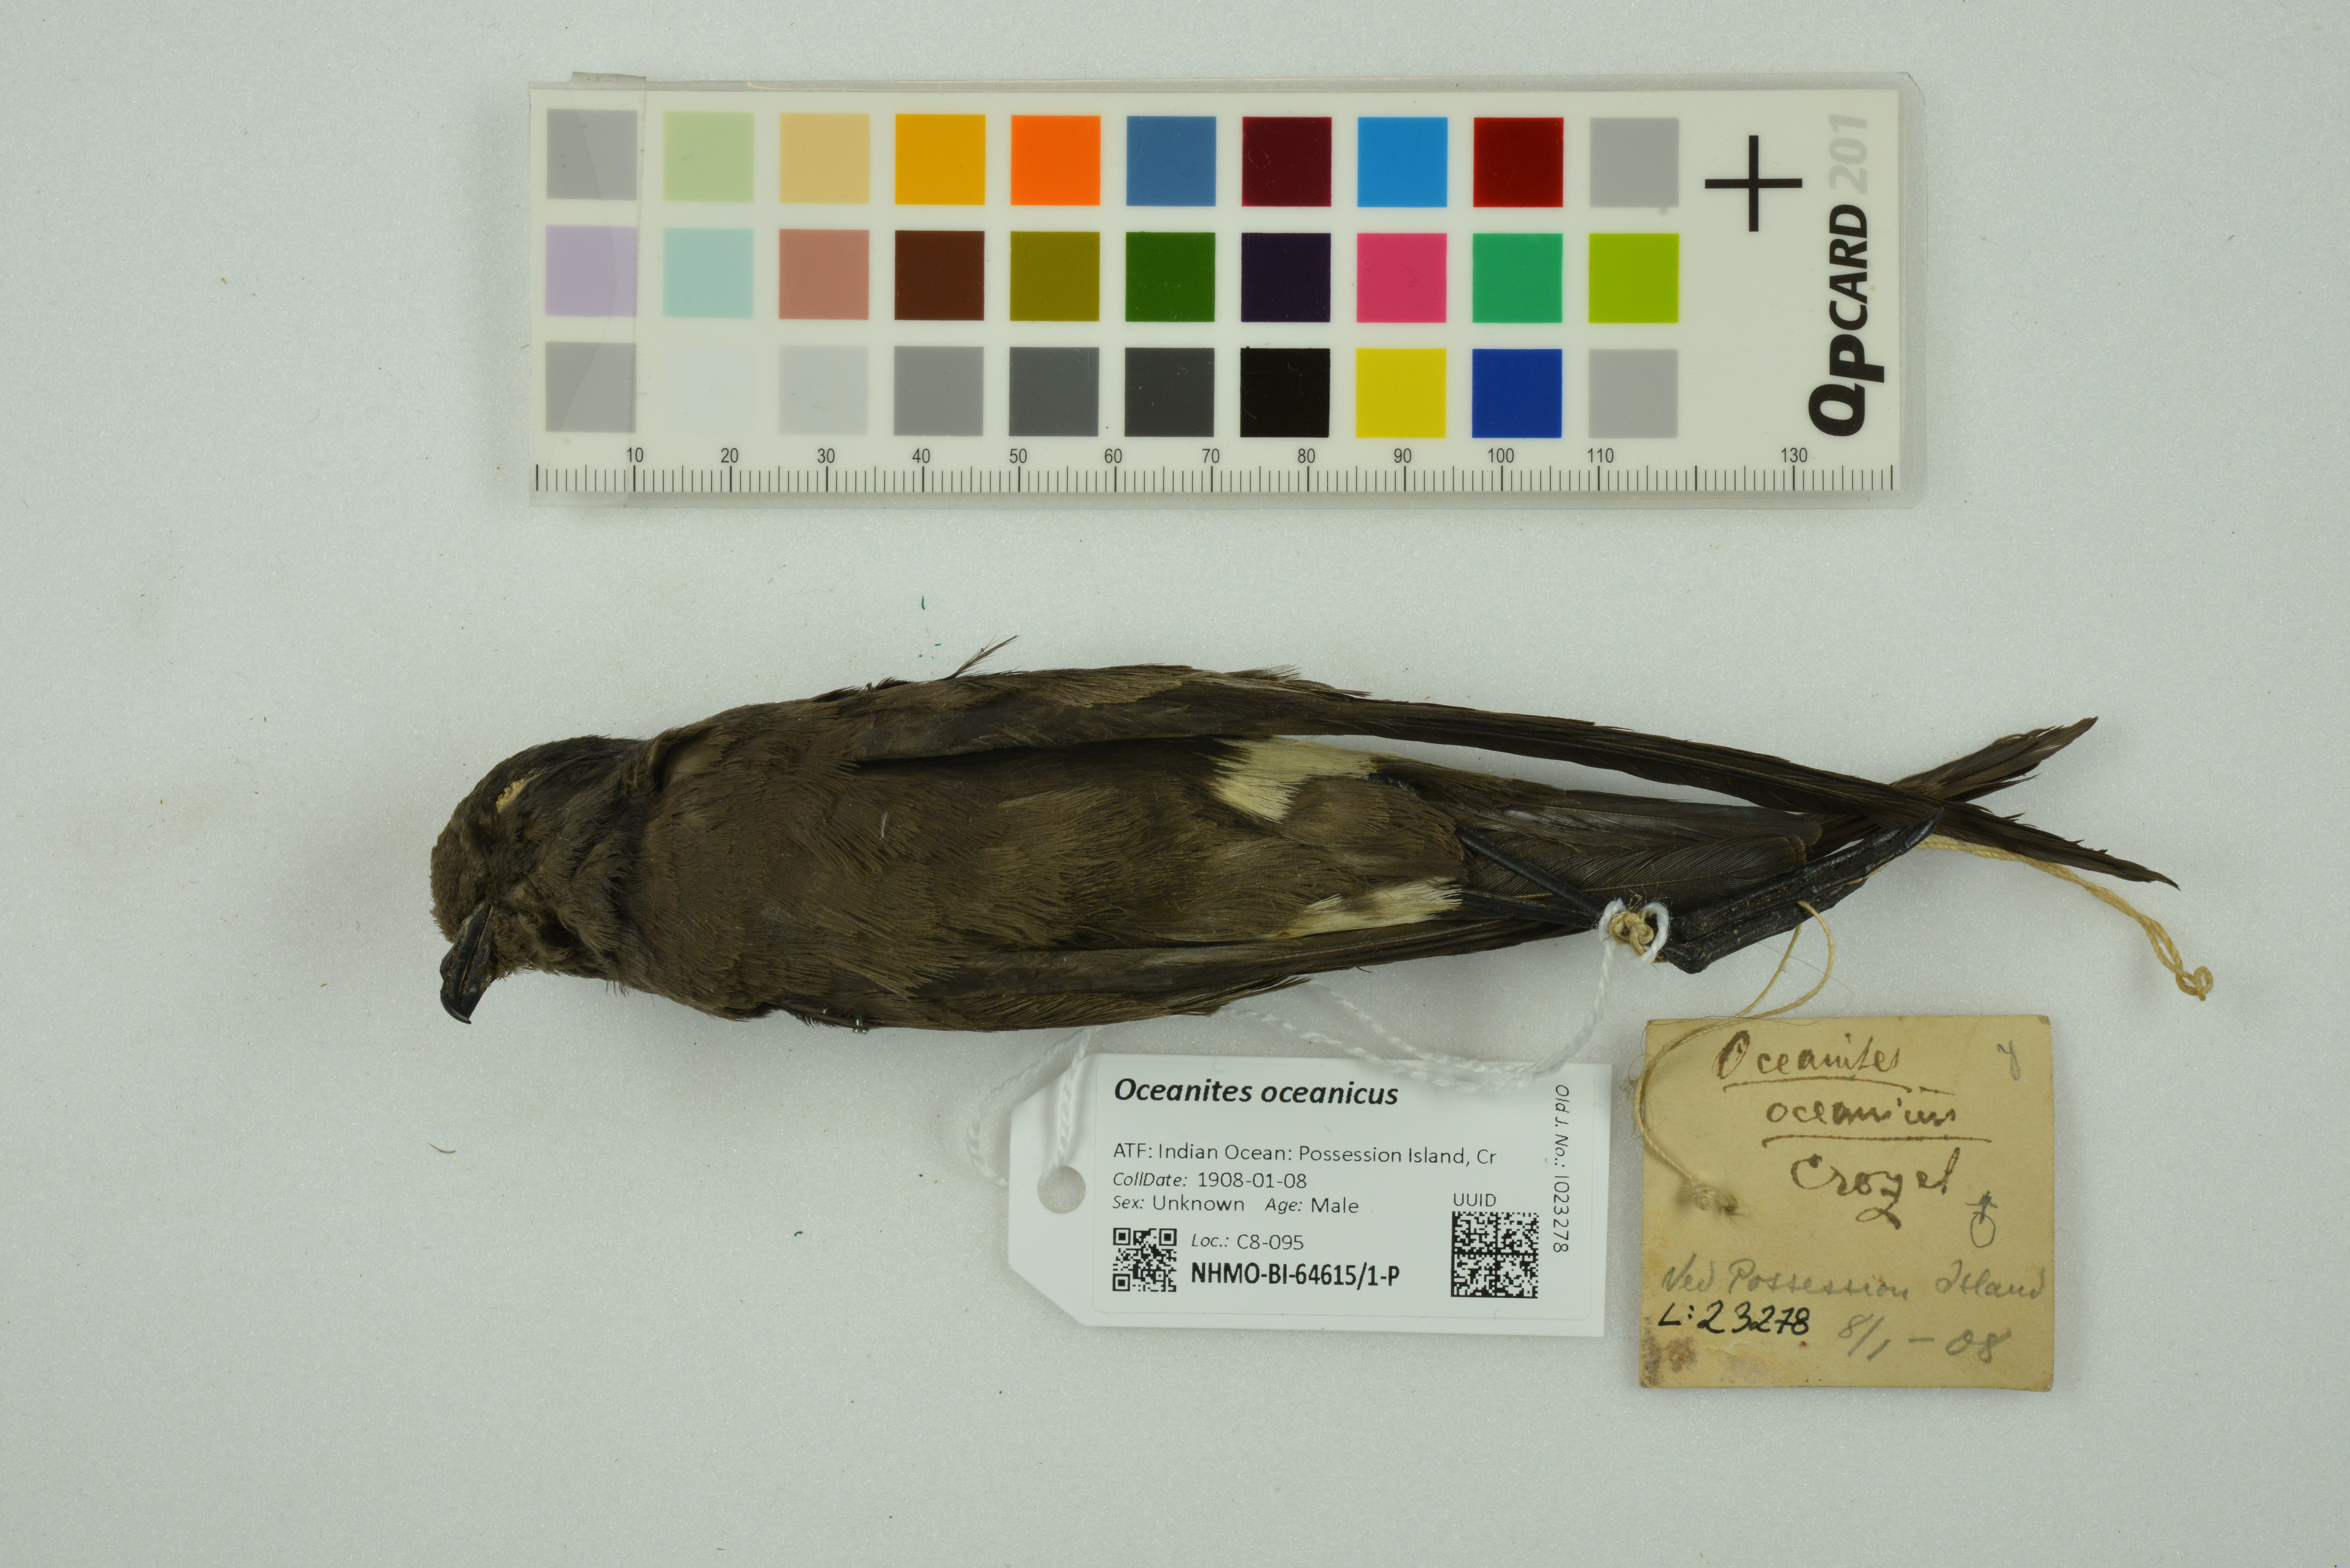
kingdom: Animalia
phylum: Chordata
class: Aves
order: Procellariiformes
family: Hydrobatidae
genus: Oceanites
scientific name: Oceanites oceanicus
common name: Wilson's storm petrel
